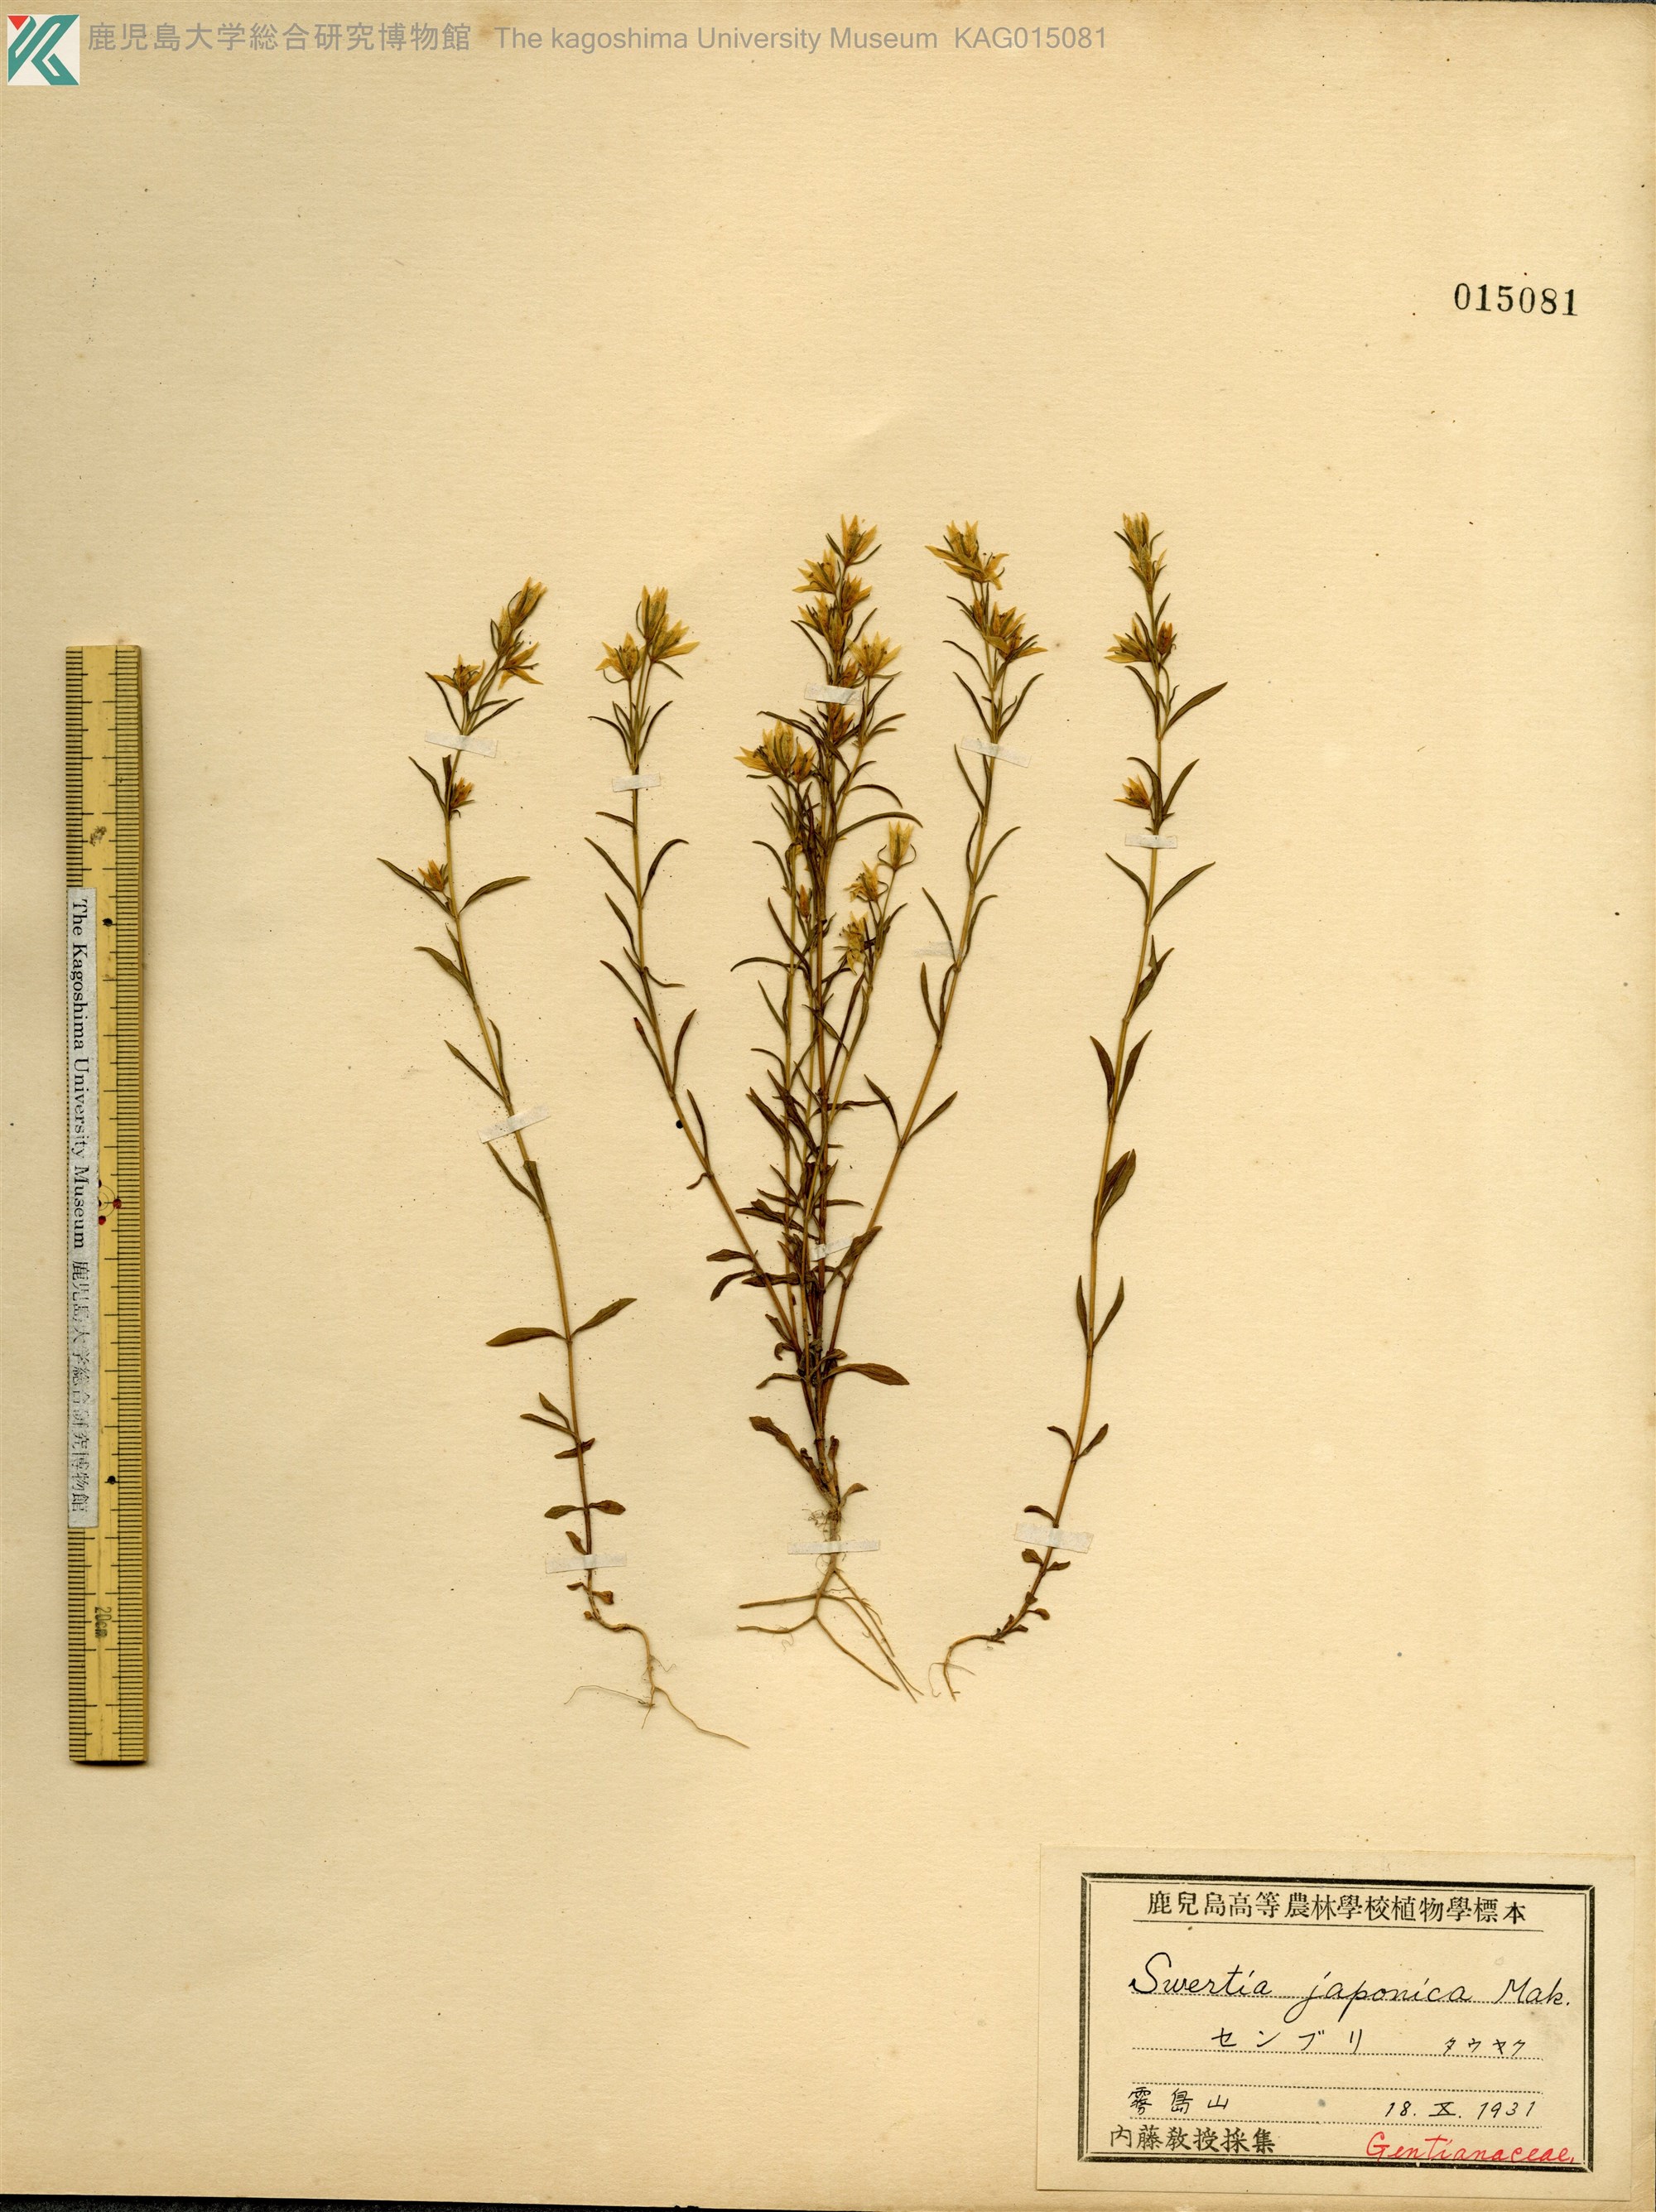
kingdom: Plantae
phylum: Tracheophyta
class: Magnoliopsida
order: Gentianales
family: Gentianaceae
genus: Swertia
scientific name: Swertia japonica
